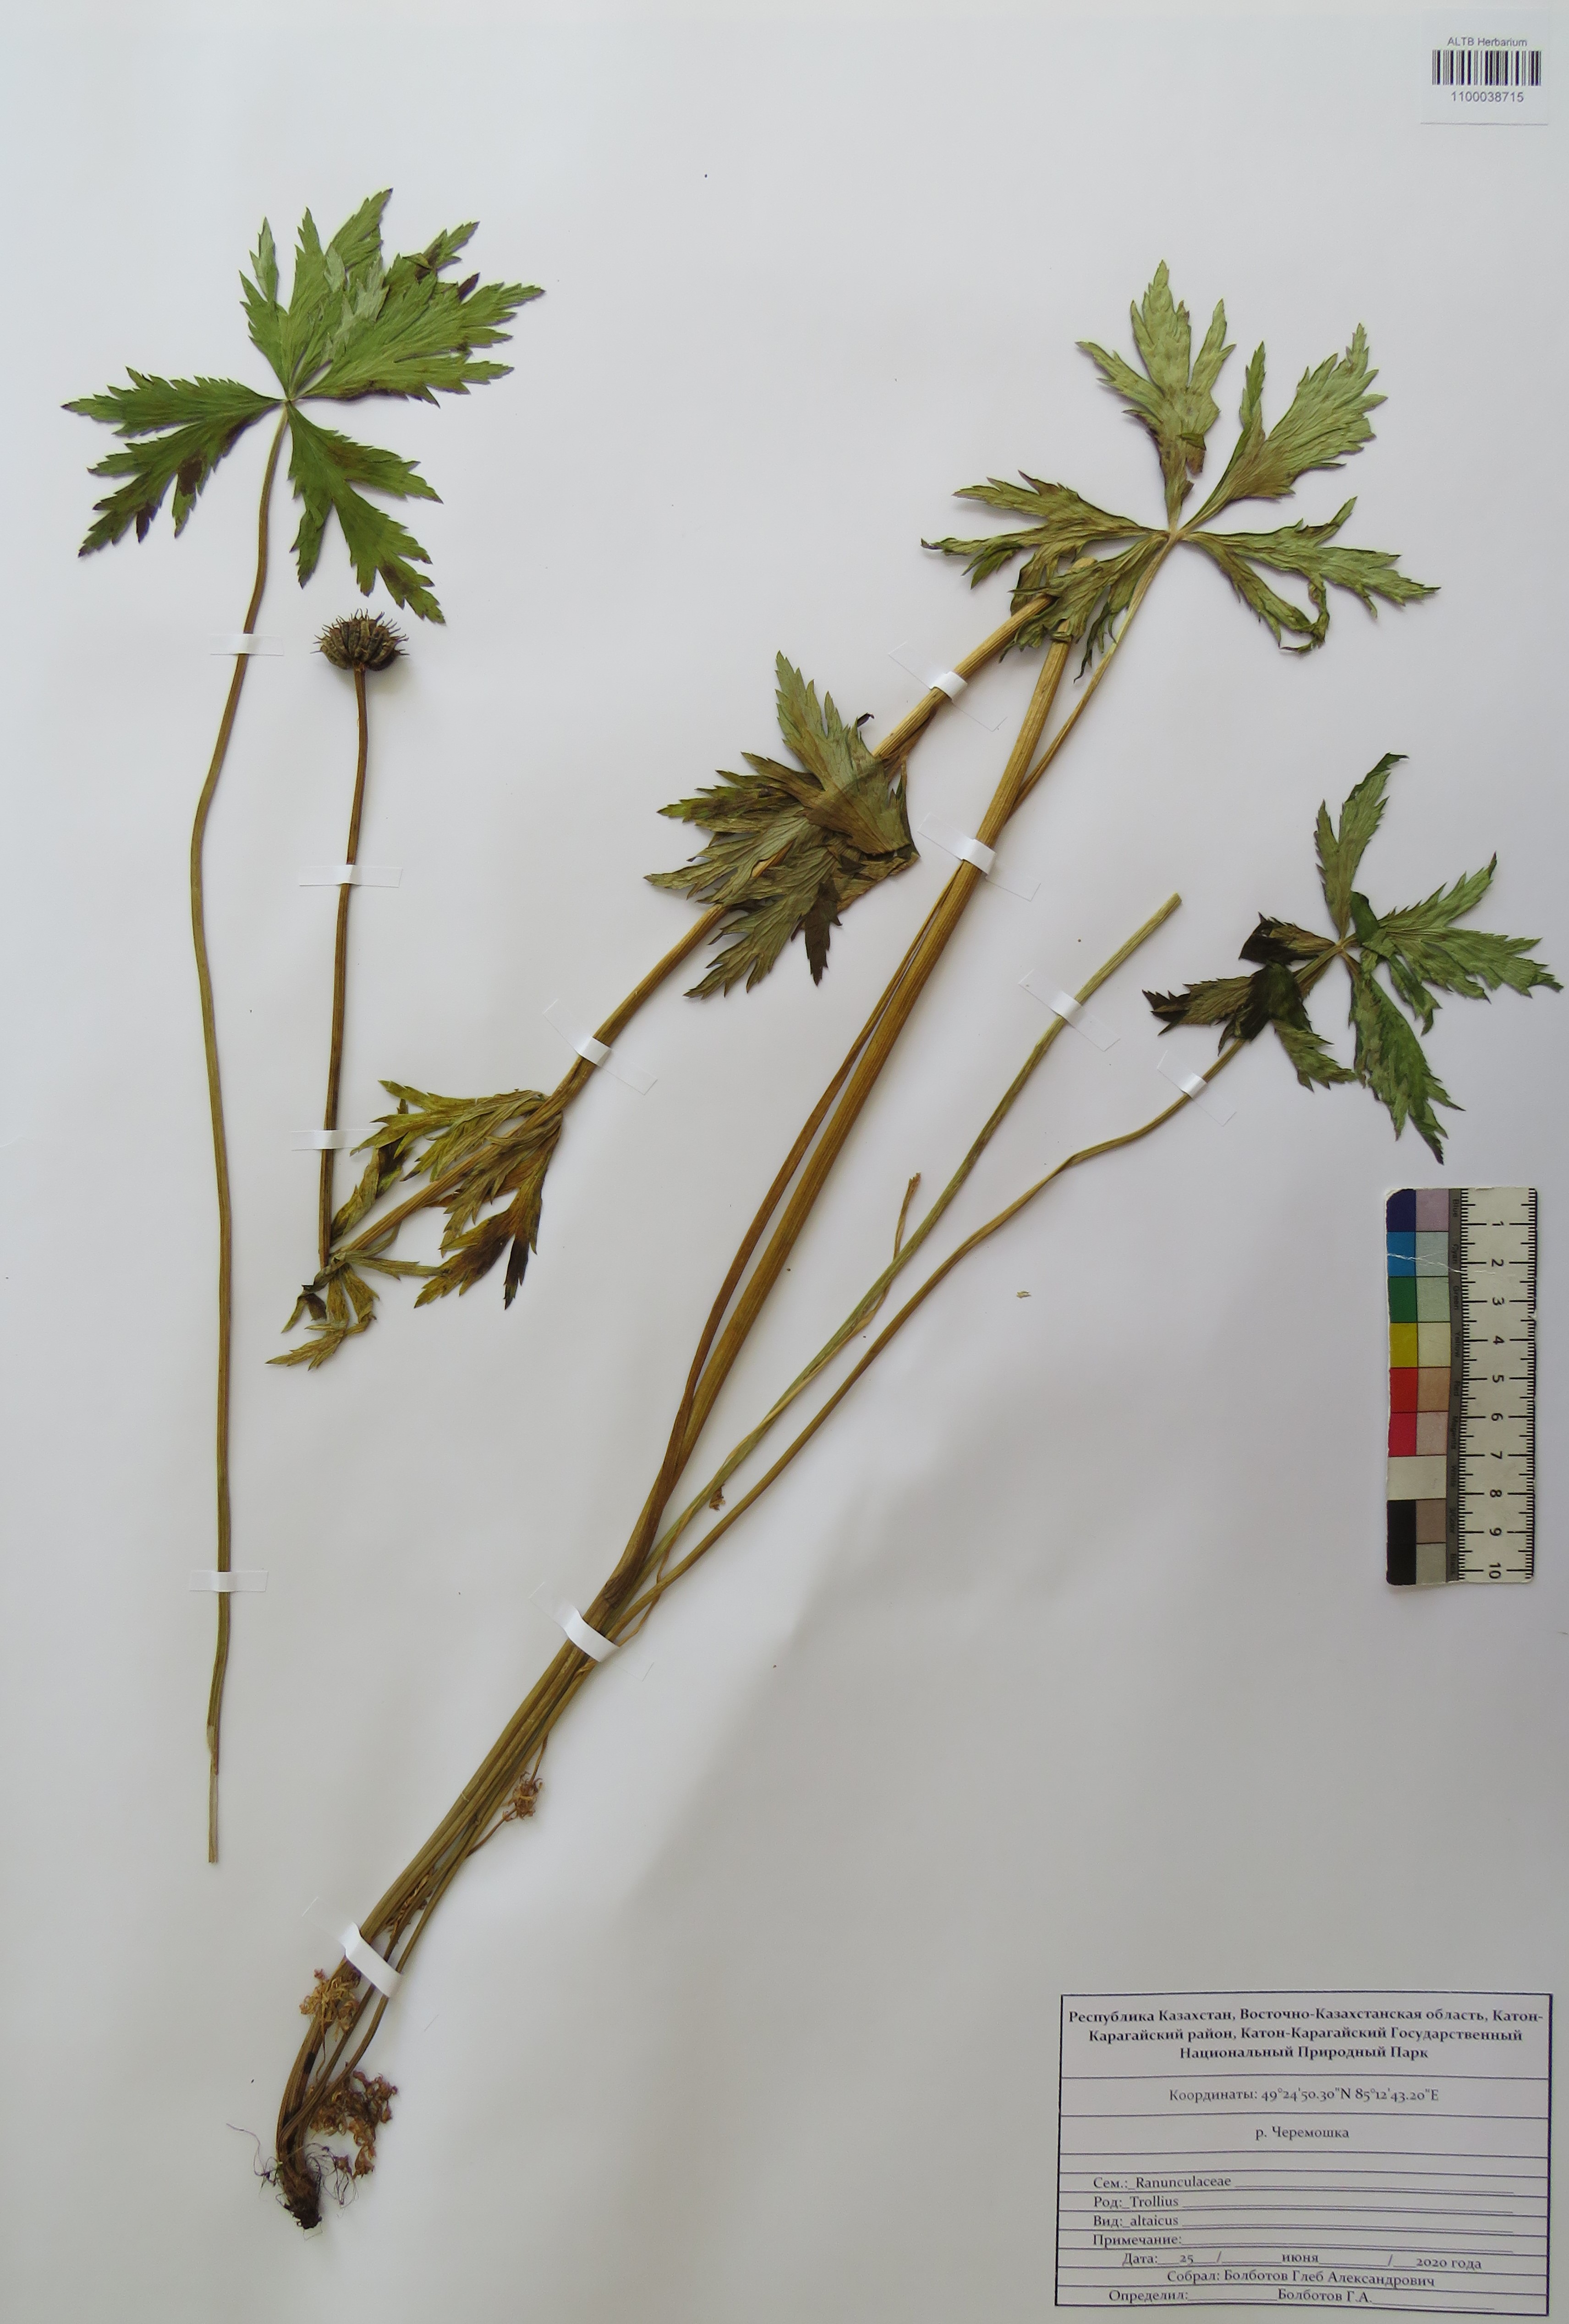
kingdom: Plantae
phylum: Tracheophyta
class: Magnoliopsida
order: Ranunculales
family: Ranunculaceae
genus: Trollius
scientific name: Trollius altaicus
